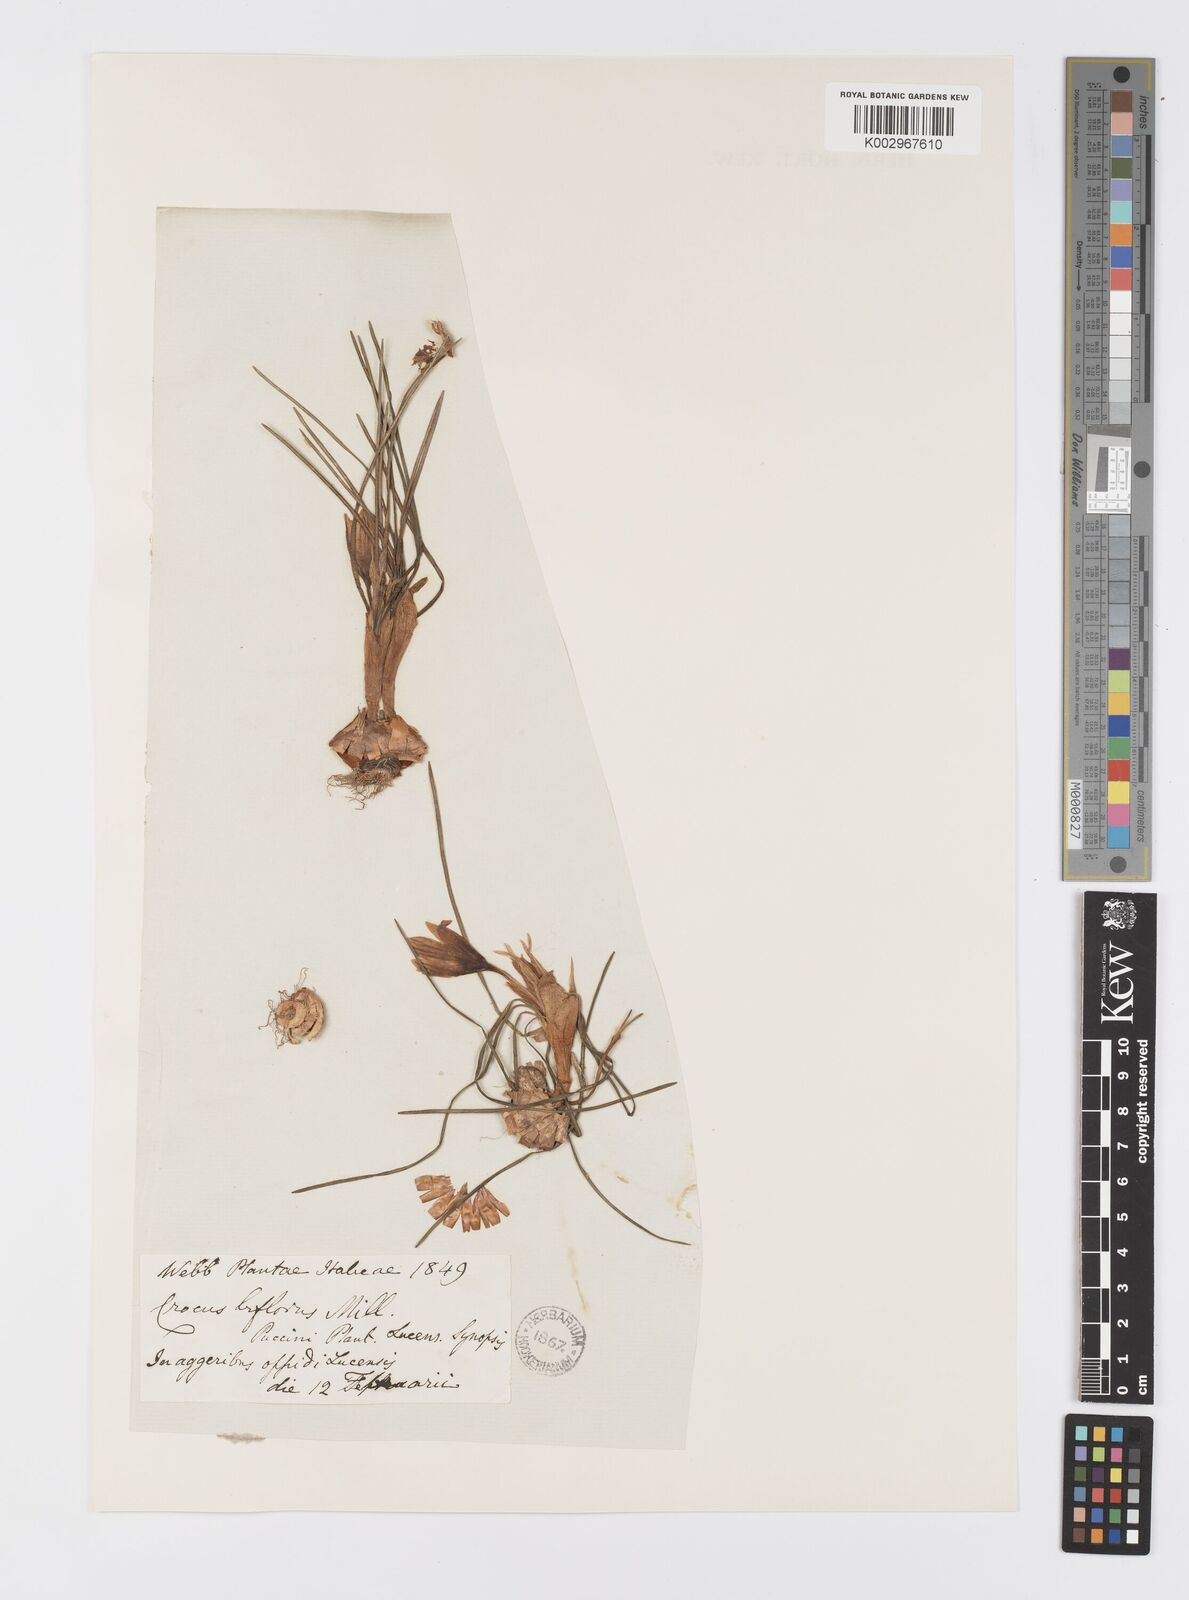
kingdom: Plantae
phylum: Tracheophyta
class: Liliopsida
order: Asparagales
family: Iridaceae
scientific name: Iridaceae
